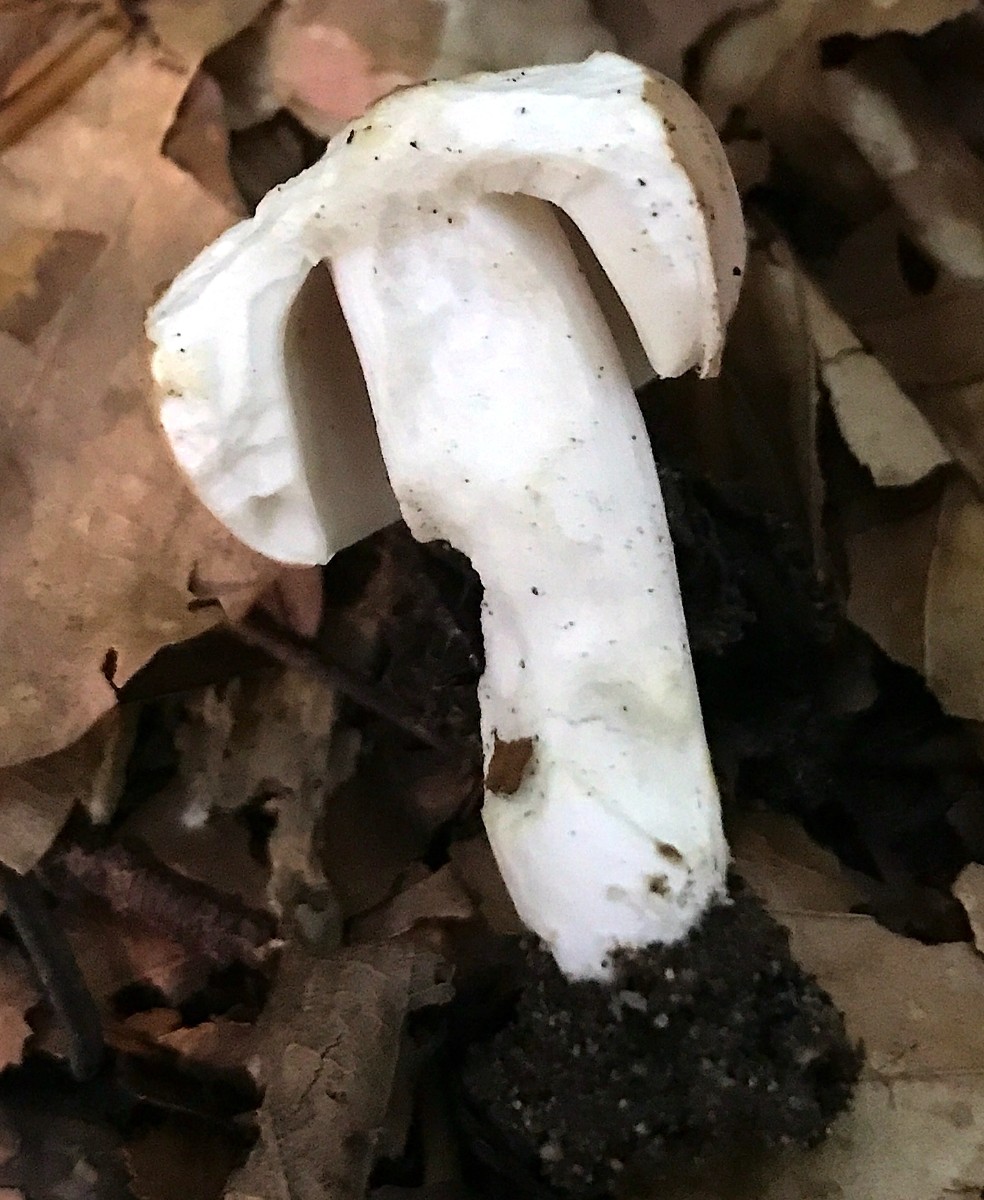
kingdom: Fungi
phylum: Basidiomycota
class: Agaricomycetes
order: Russulales
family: Russulaceae
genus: Russula
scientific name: Russula vesca
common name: spiselig skørhat
